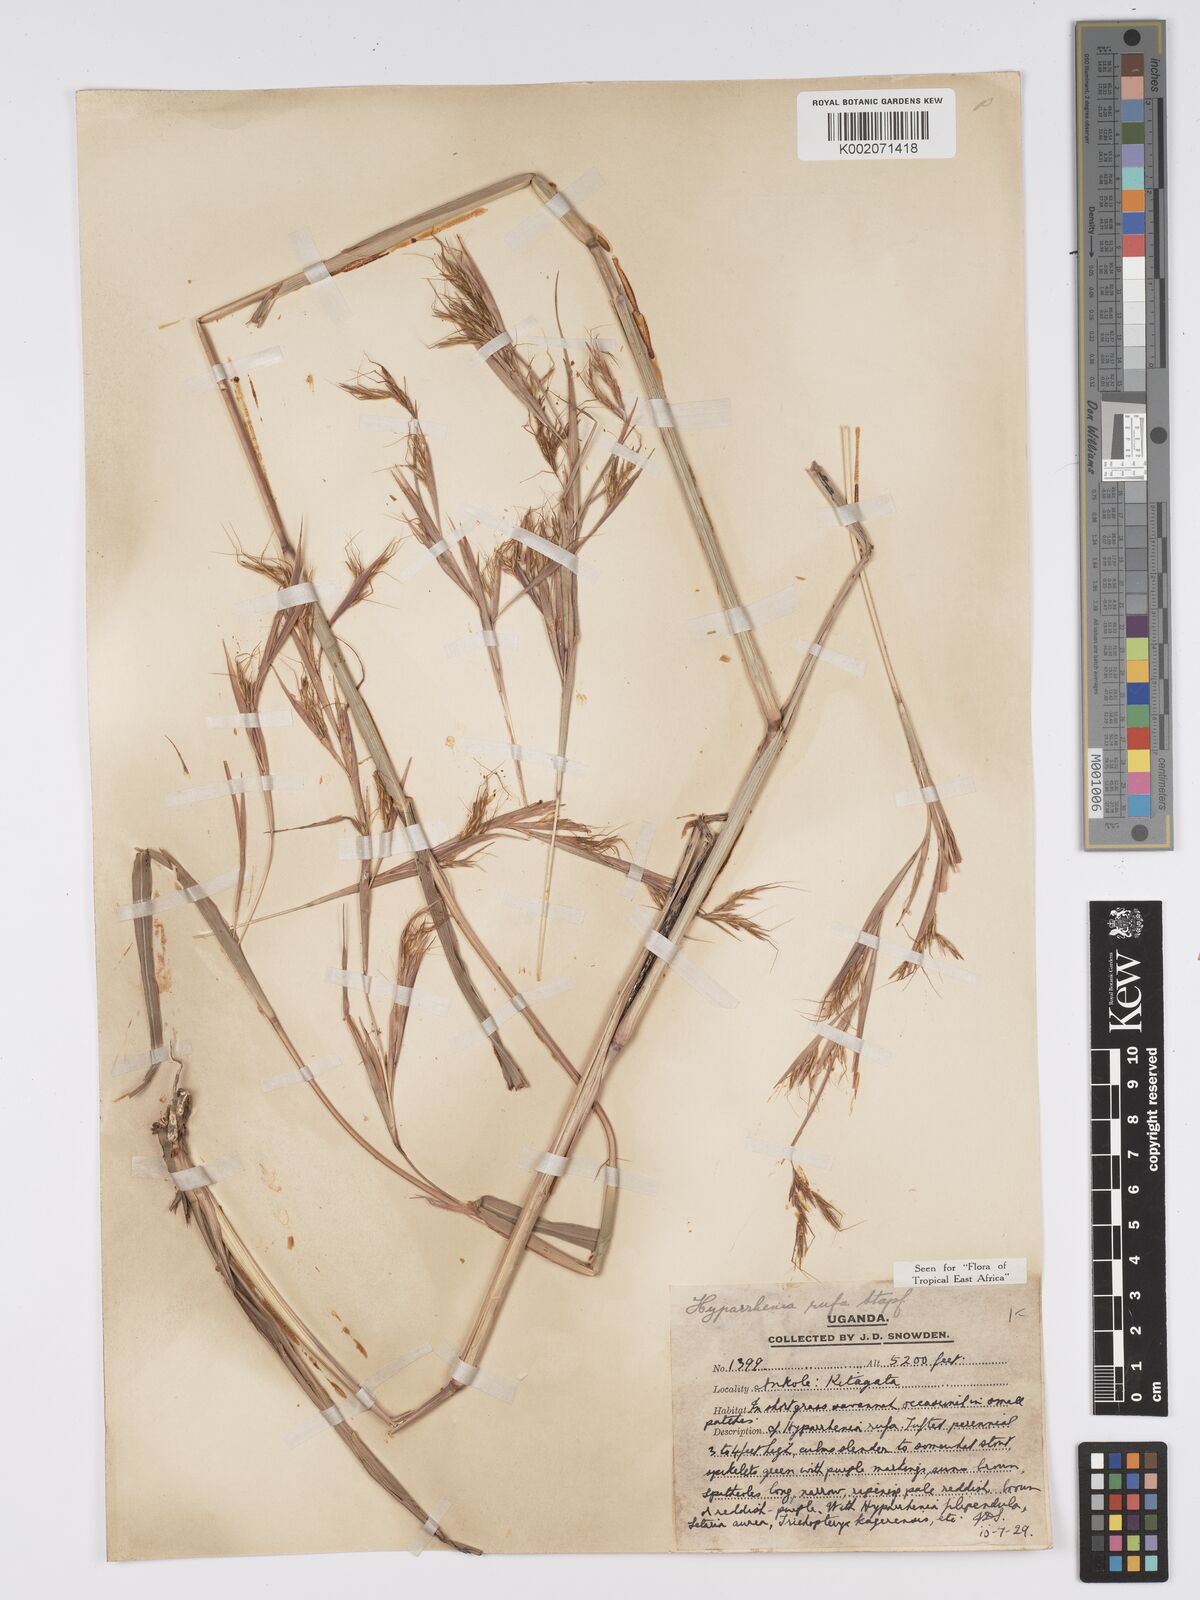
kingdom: Plantae
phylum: Tracheophyta
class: Liliopsida
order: Poales
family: Poaceae
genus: Hyparrhenia
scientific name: Hyparrhenia rufa
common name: Jaraguagrass
